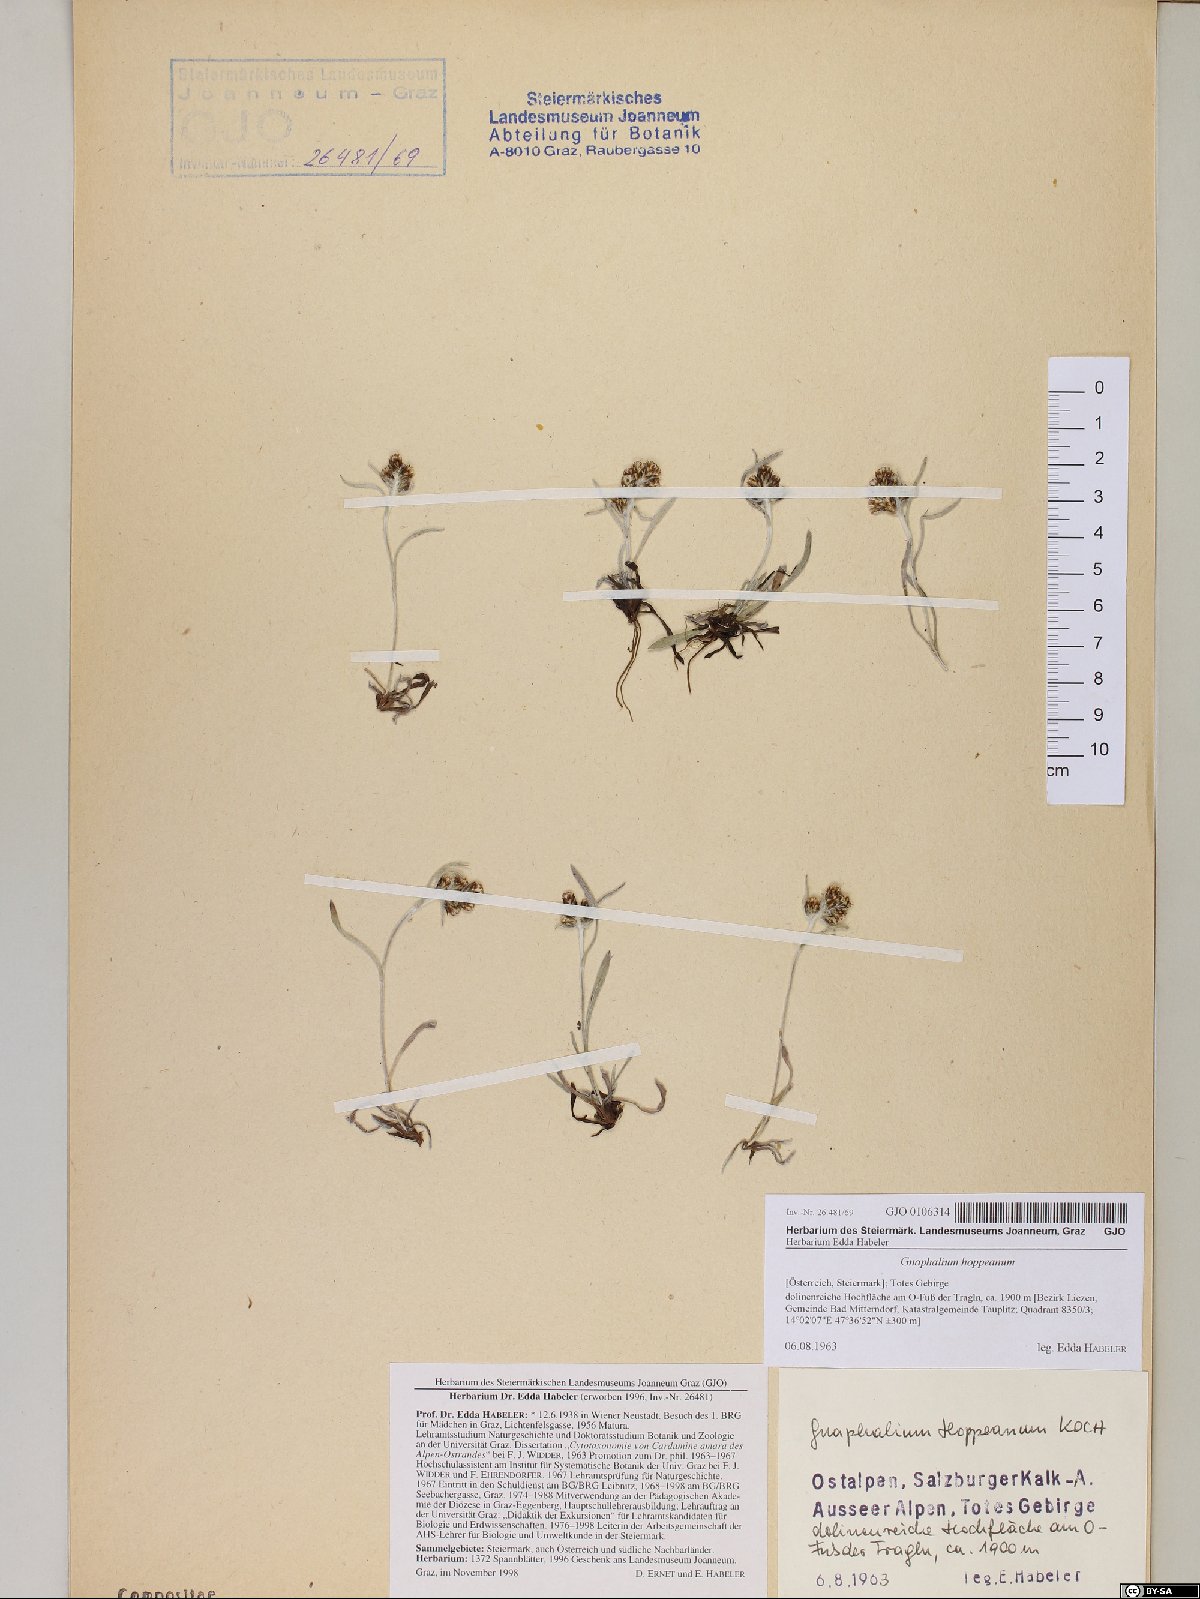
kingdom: Plantae
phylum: Tracheophyta
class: Magnoliopsida
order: Asterales
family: Asteraceae
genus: Omalotheca
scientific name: Omalotheca hoppeana
